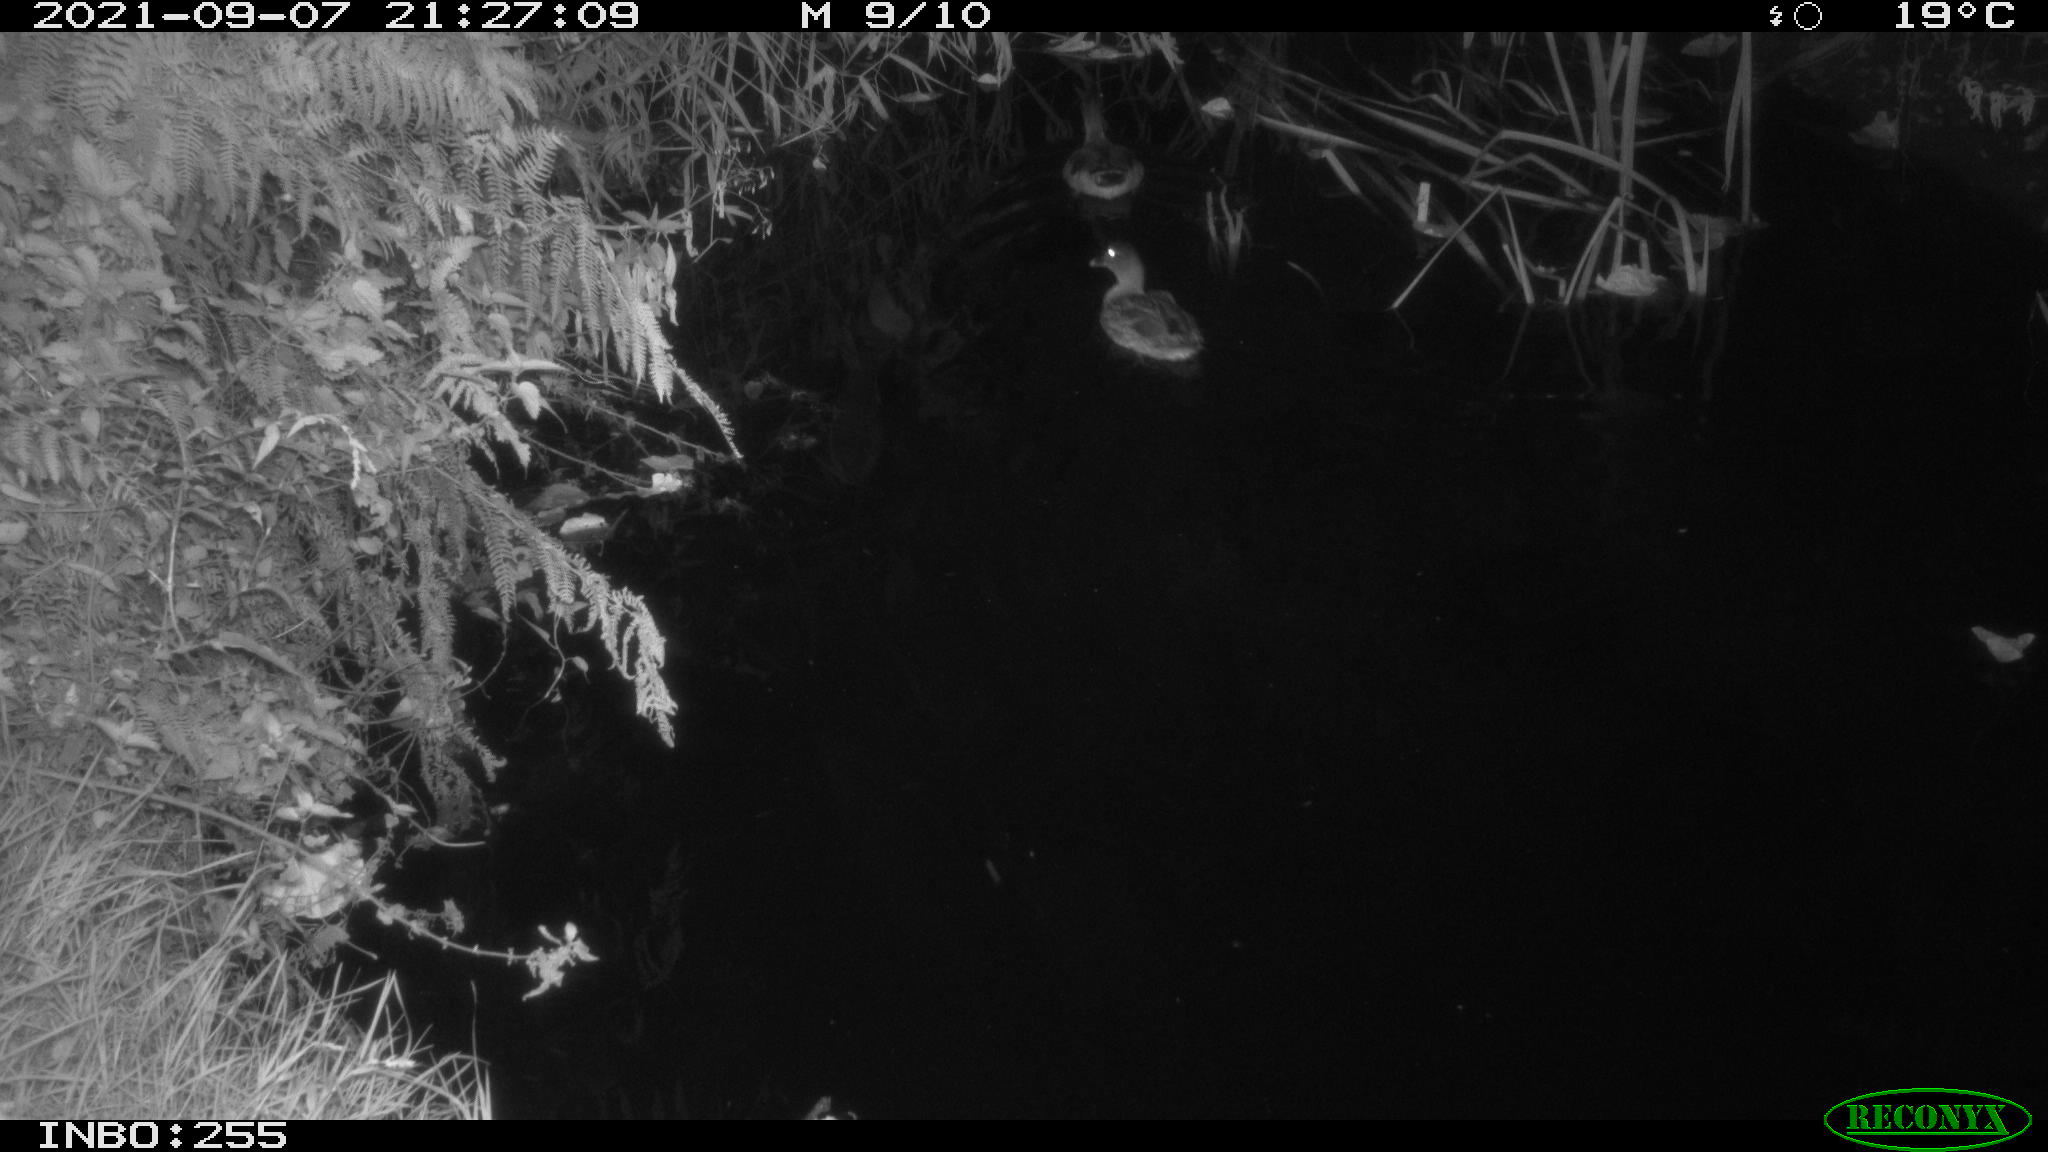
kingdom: Animalia
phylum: Chordata
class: Aves
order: Anseriformes
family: Anatidae
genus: Anas
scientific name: Anas platyrhynchos
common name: Mallard
